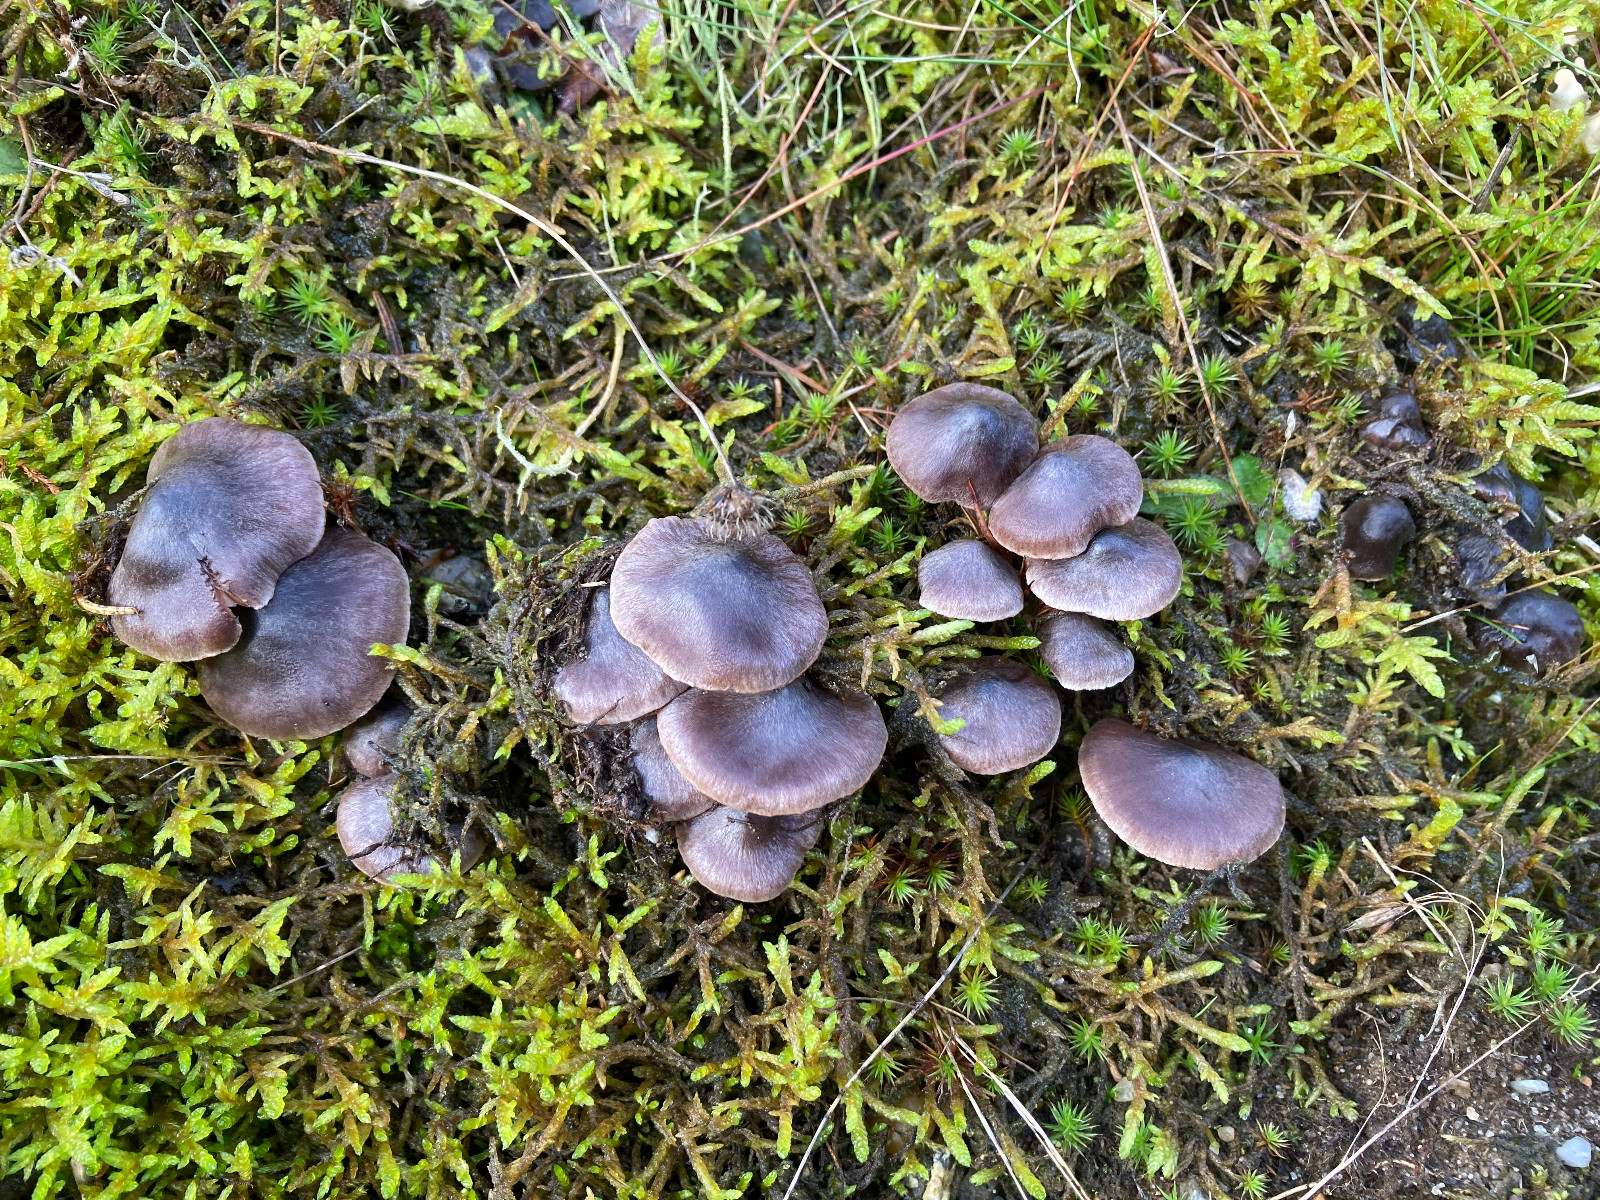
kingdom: Fungi
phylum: Basidiomycota
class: Agaricomycetes
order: Agaricales
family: Cortinariaceae
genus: Cortinarius
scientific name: Cortinarius
